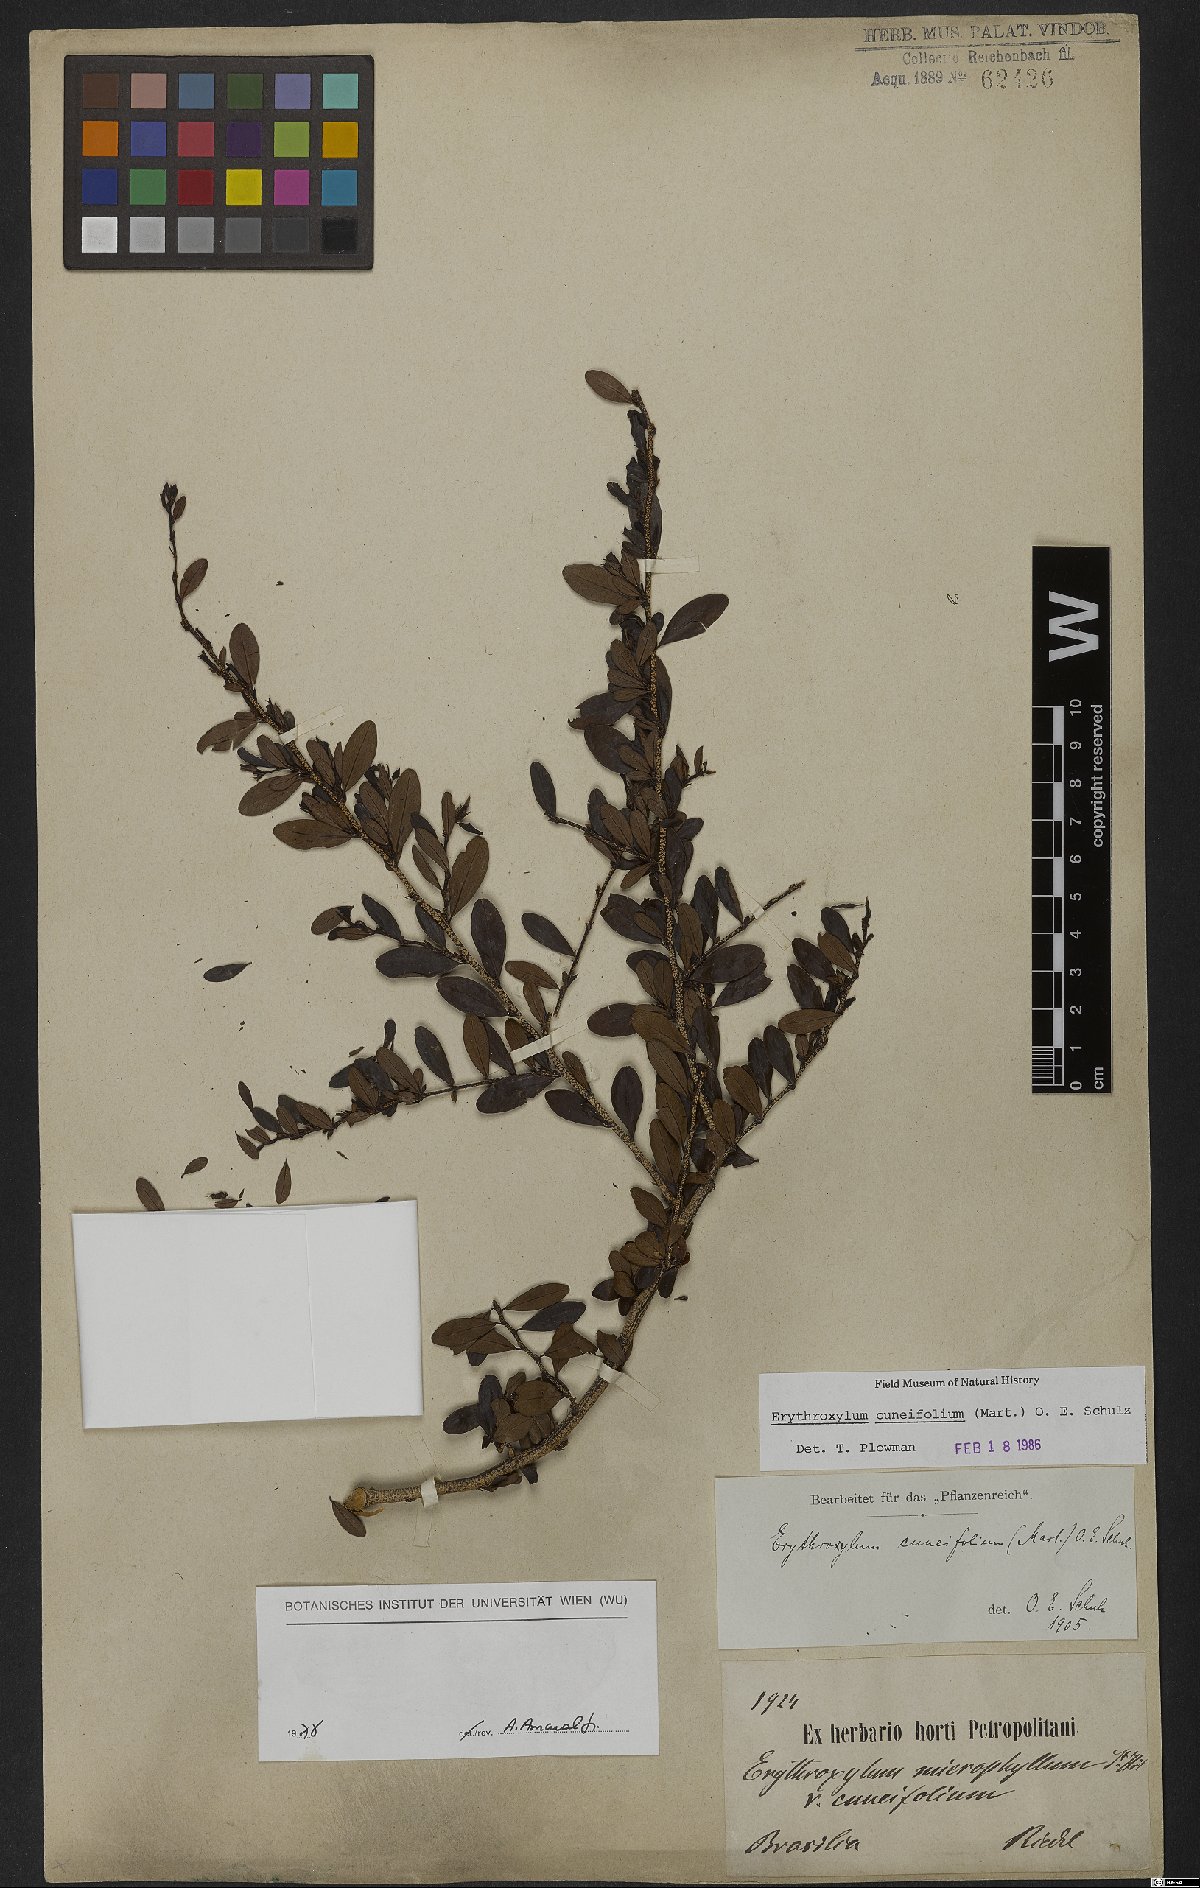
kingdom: Plantae
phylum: Tracheophyta
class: Magnoliopsida
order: Malpighiales
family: Erythroxylaceae
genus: Erythroxylum
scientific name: Erythroxylum cuneifolium
